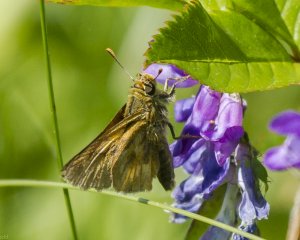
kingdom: Animalia
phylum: Arthropoda
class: Insecta
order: Lepidoptera
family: Hesperiidae
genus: Polites
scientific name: Polites
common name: Long Dash Skipper
